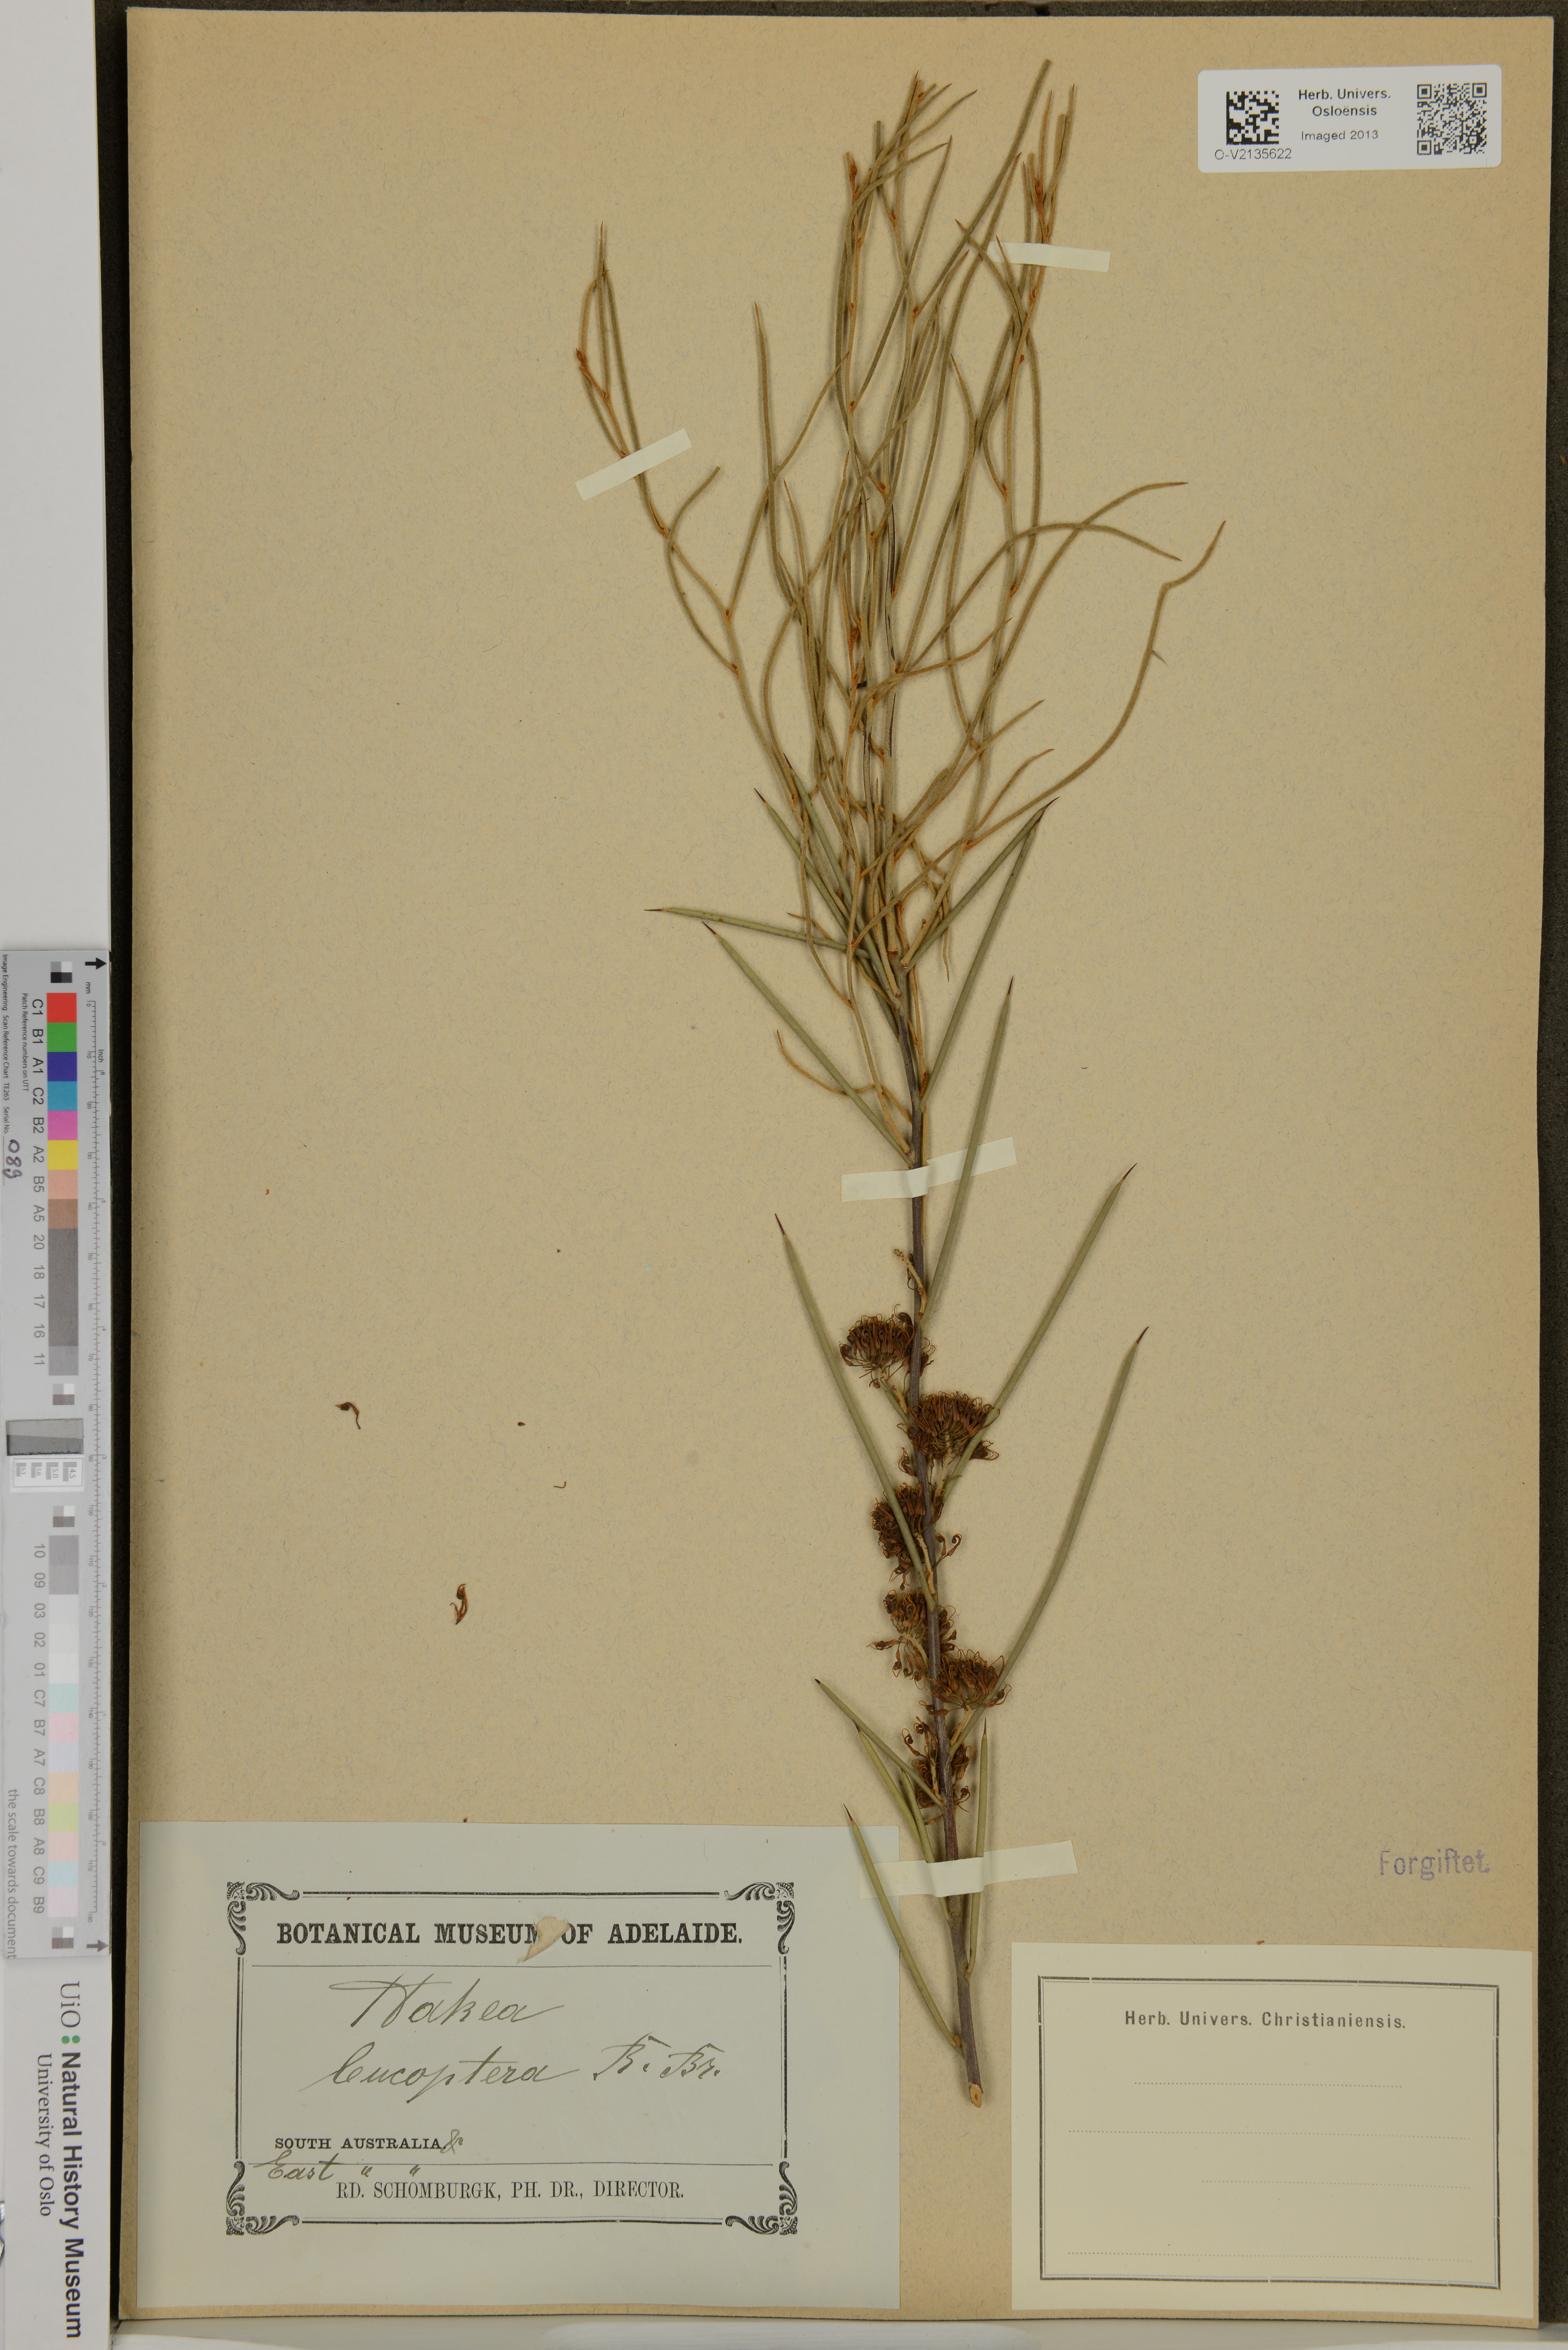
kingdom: Plantae
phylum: Tracheophyta
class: Magnoliopsida
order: Proteales
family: Proteaceae
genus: Hakea
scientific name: Hakea leucoptera
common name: Pinbush
